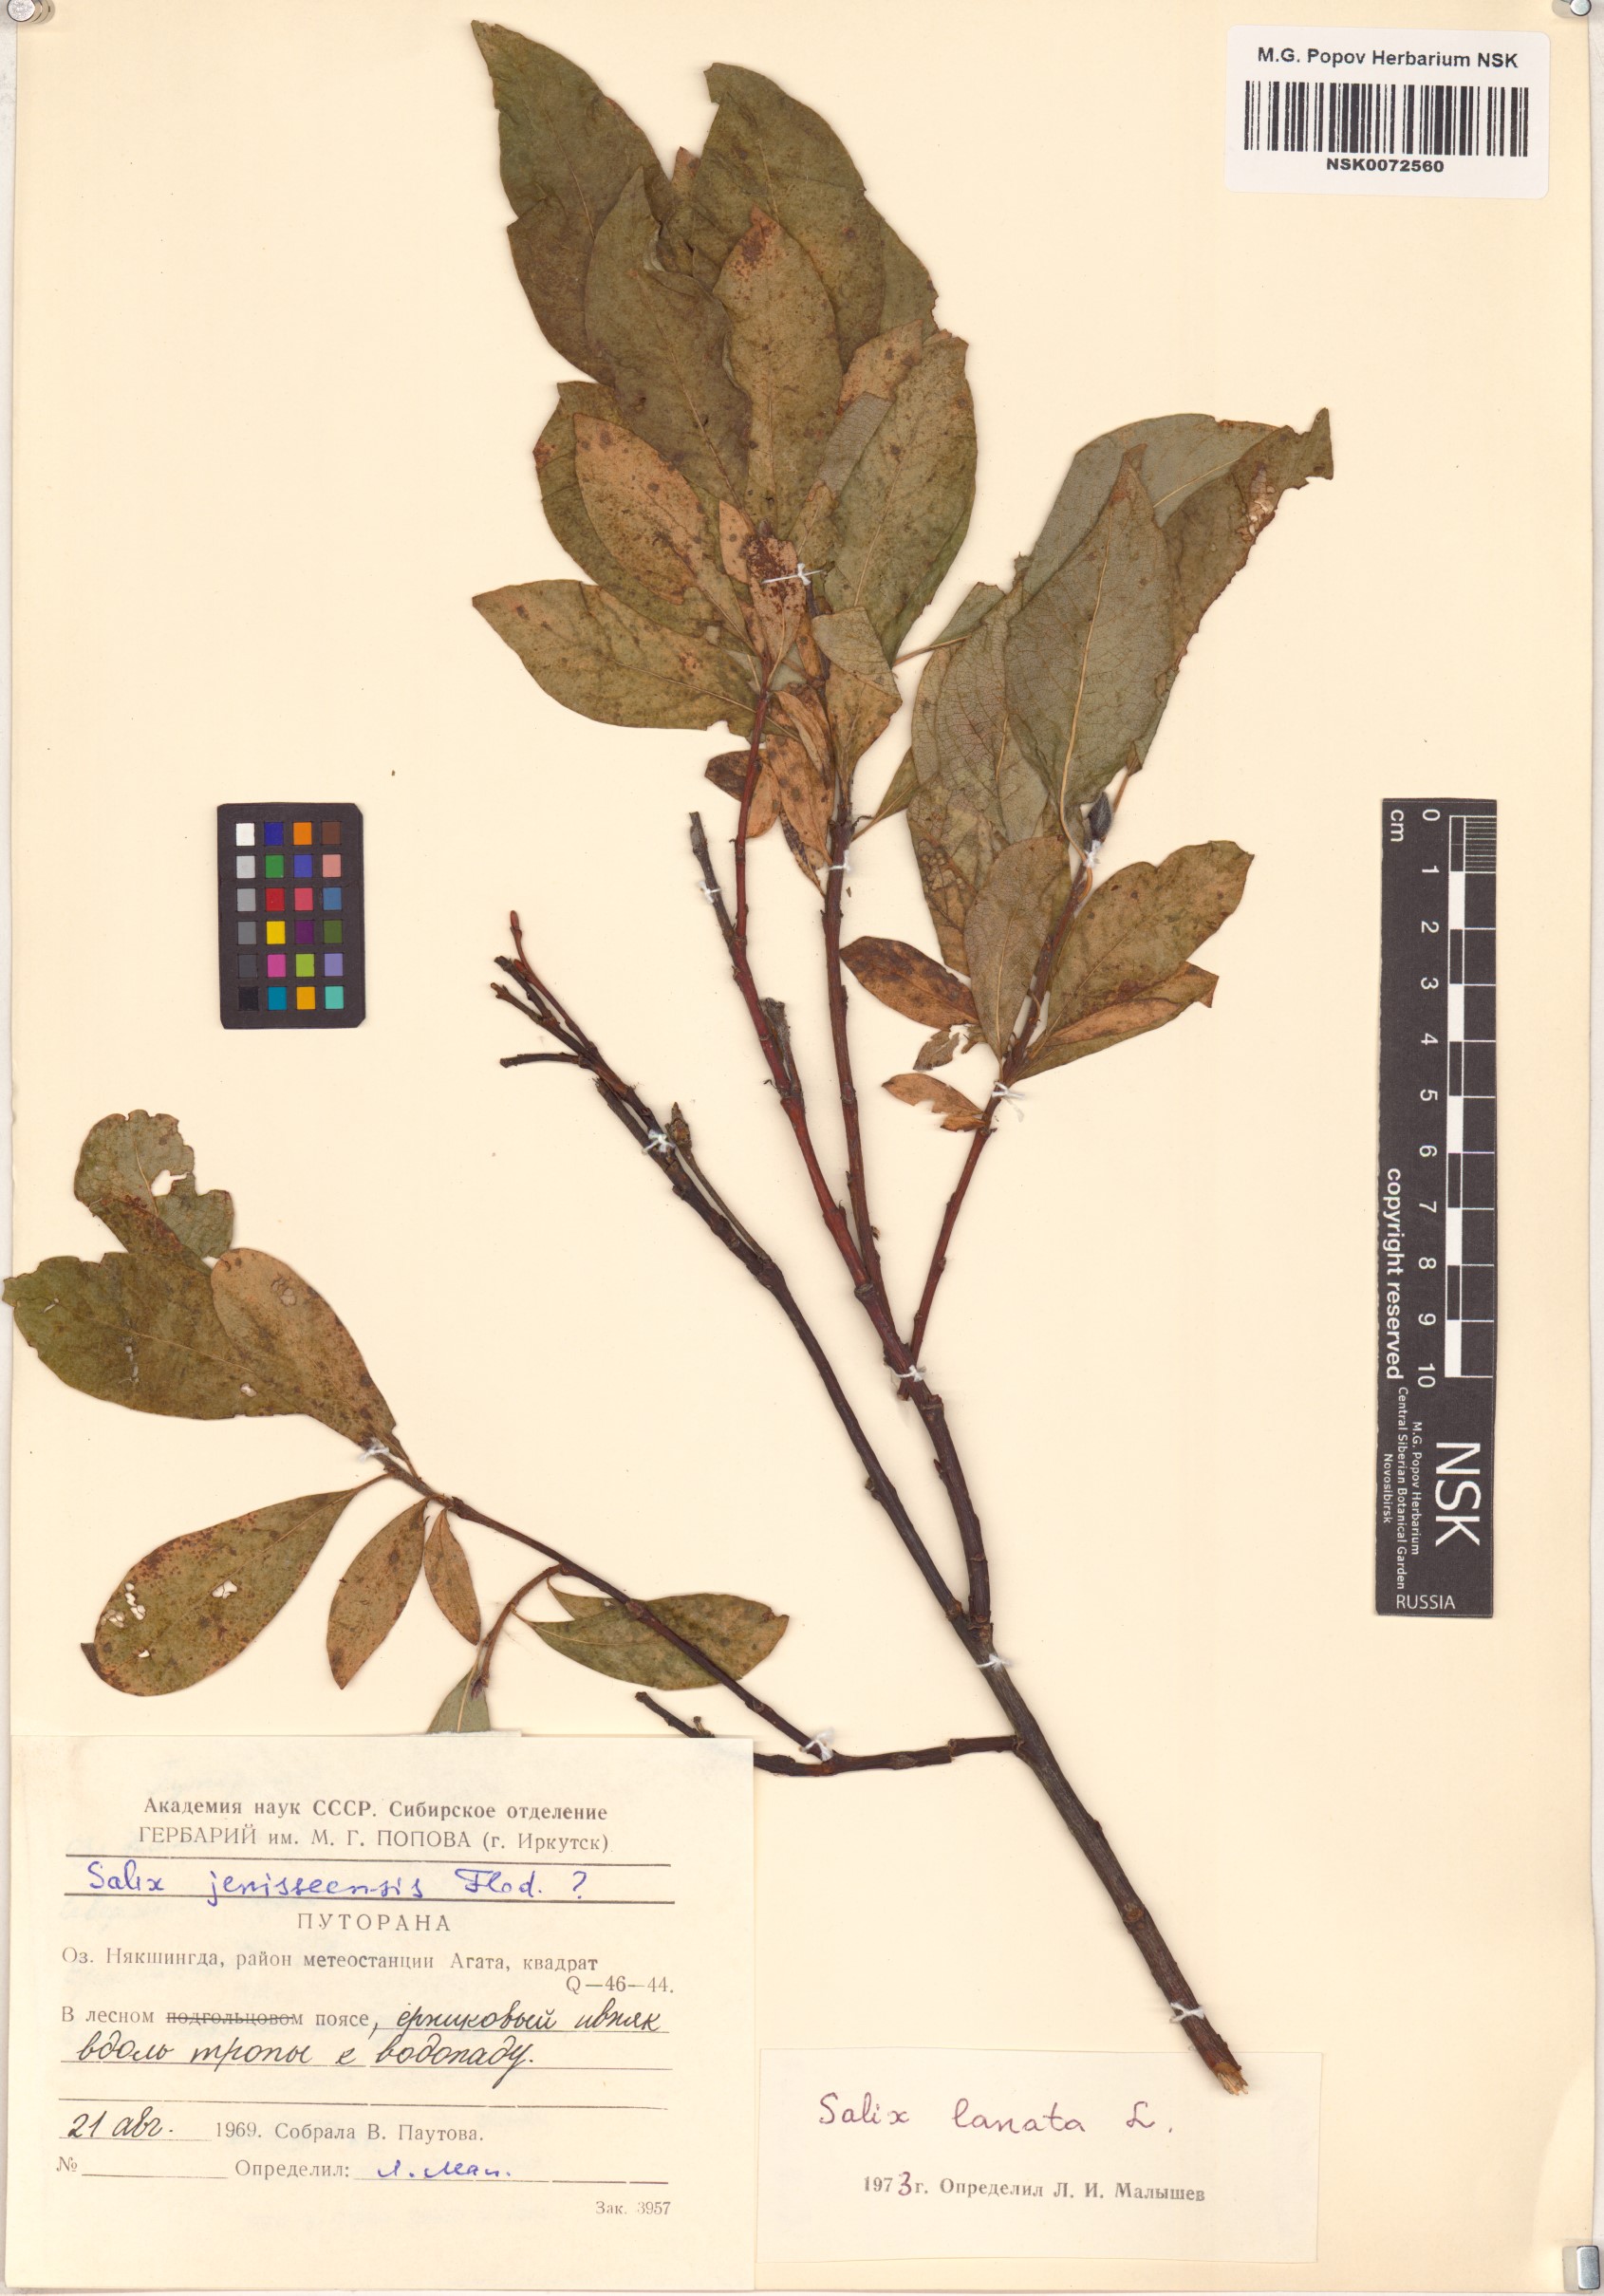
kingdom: Plantae
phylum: Tracheophyta
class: Magnoliopsida
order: Malpighiales
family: Salicaceae
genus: Salix
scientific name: Salix lanata
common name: Woolly willow
